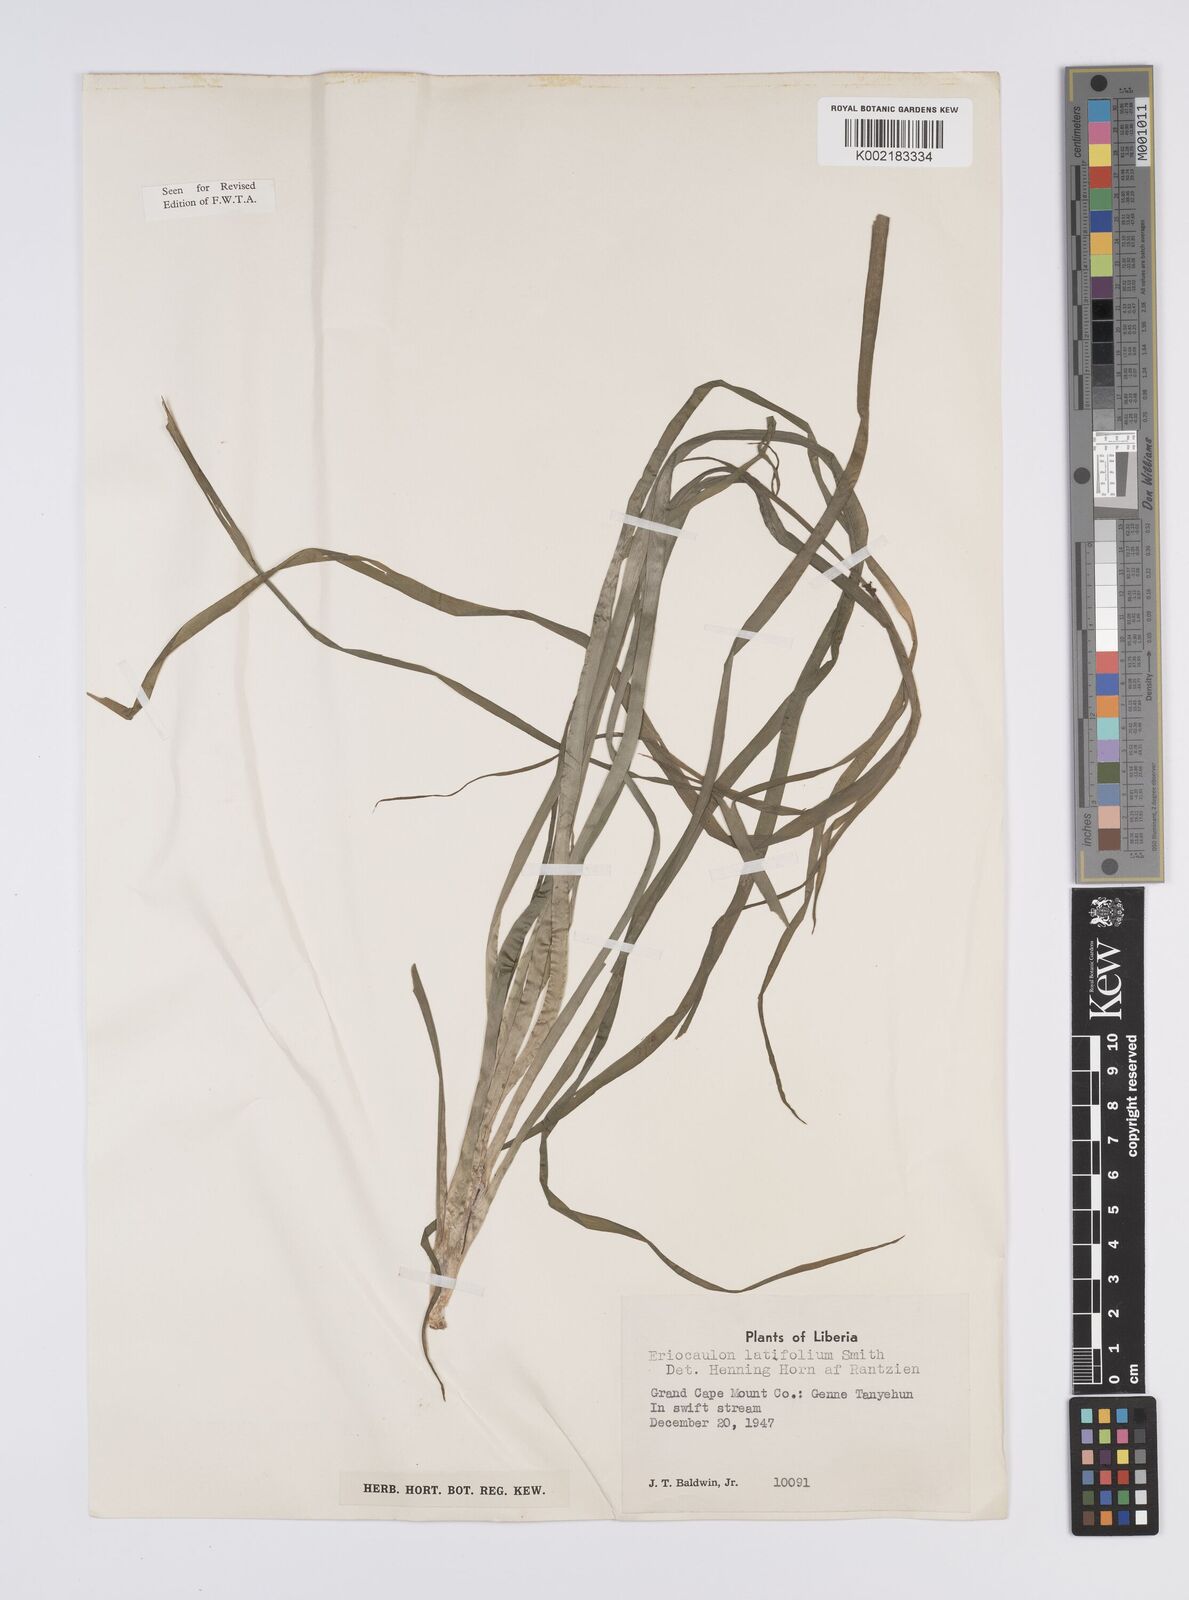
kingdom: Plantae
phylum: Tracheophyta
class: Liliopsida
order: Poales
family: Eriocaulaceae
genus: Eriocaulon
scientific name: Eriocaulon latifolium
